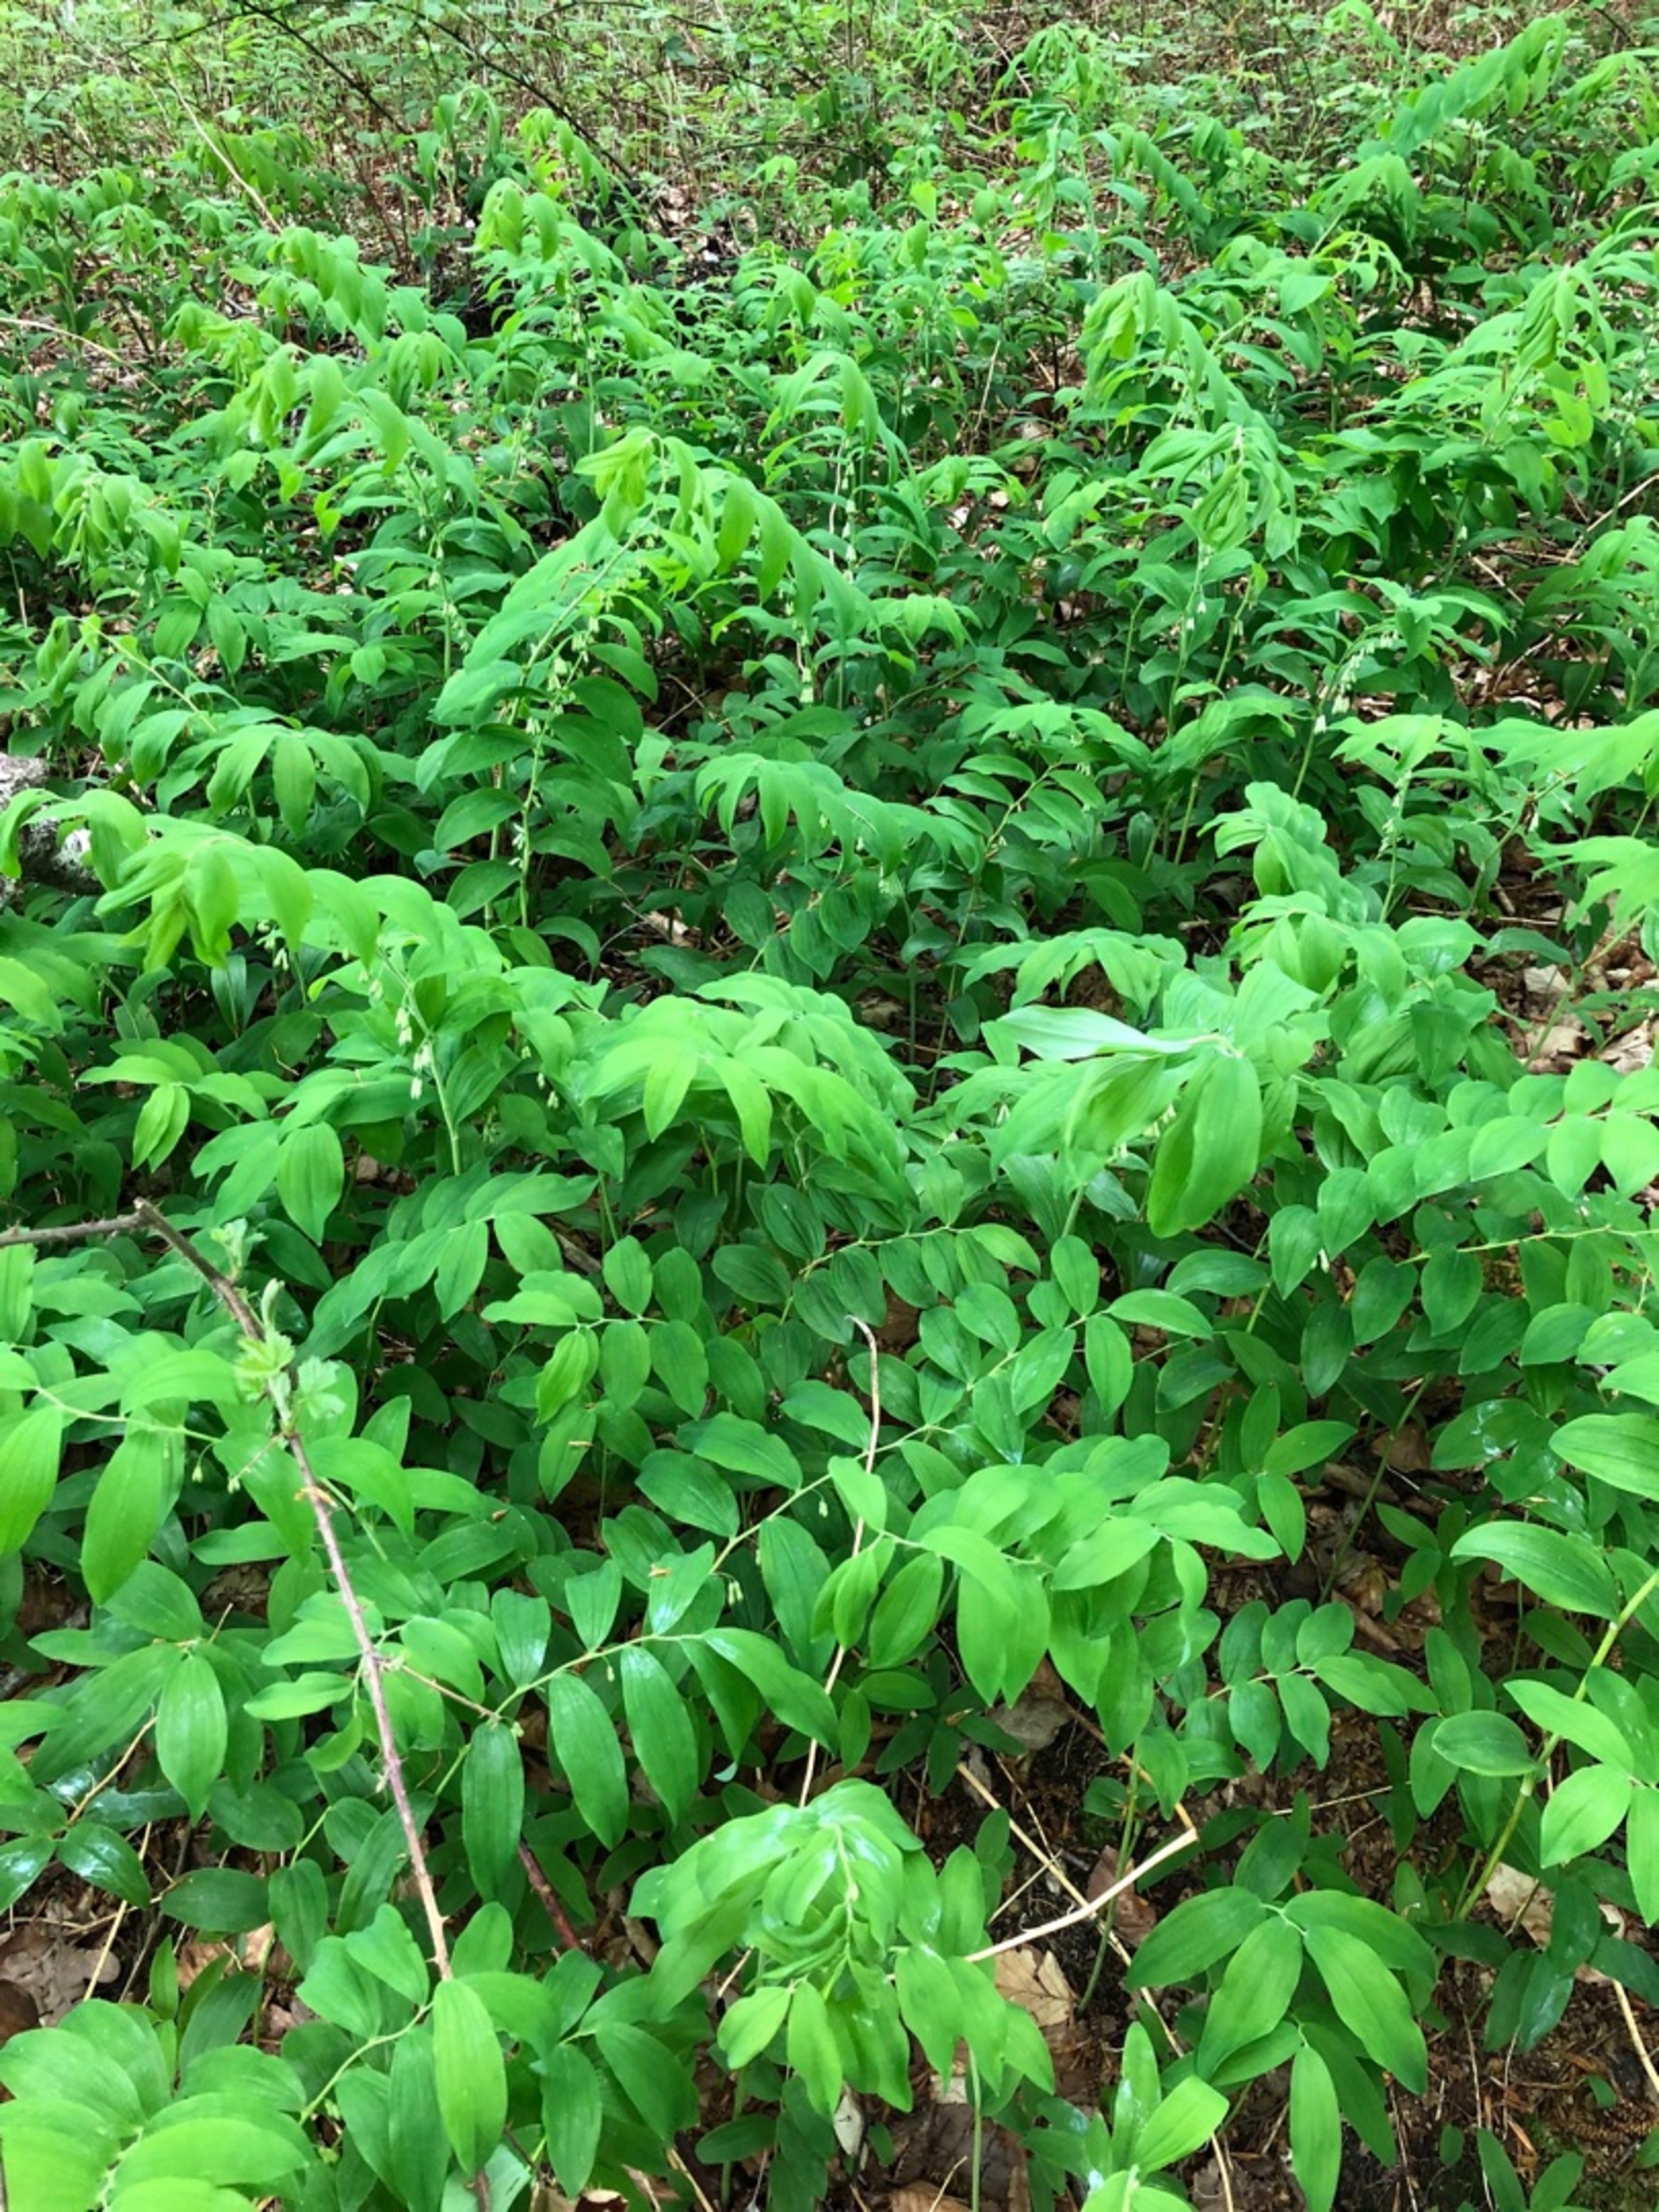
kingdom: Plantae
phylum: Tracheophyta
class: Liliopsida
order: Asparagales
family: Asparagaceae
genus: Polygonatum
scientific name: Polygonatum multiflorum
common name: Stor konval
